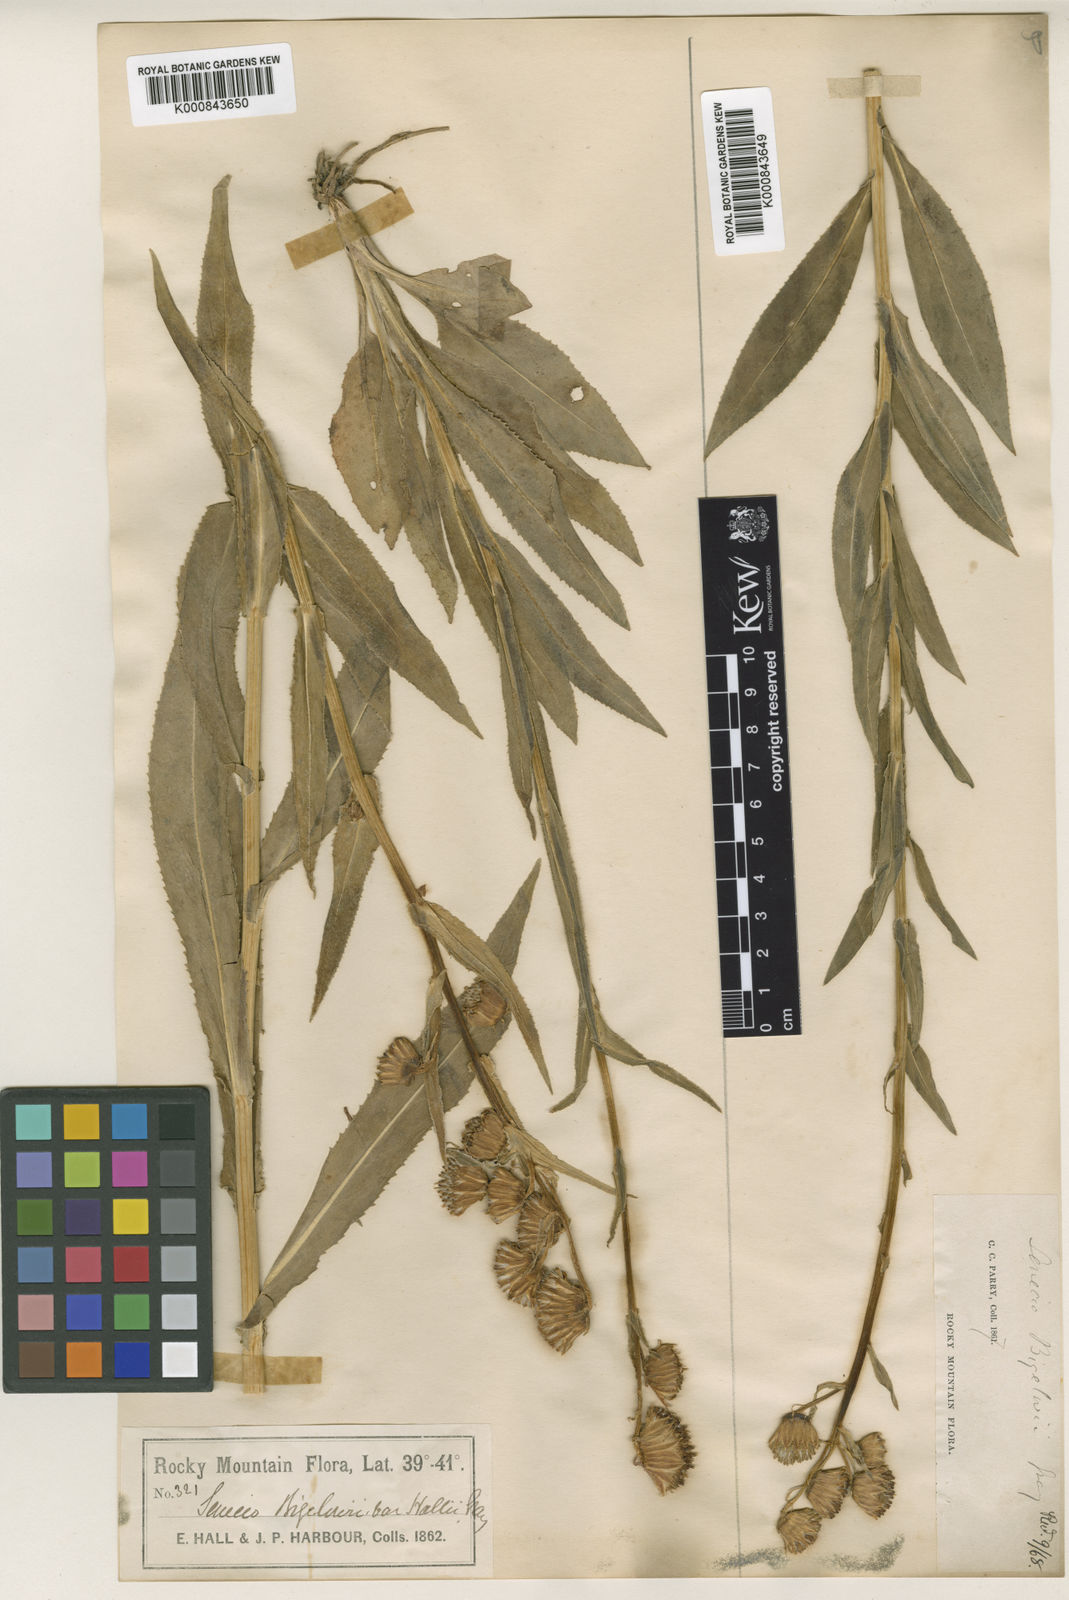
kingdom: Plantae
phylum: Tracheophyta
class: Magnoliopsida
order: Asterales
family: Asteraceae
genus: Senecio
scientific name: Senecio bigelovii
